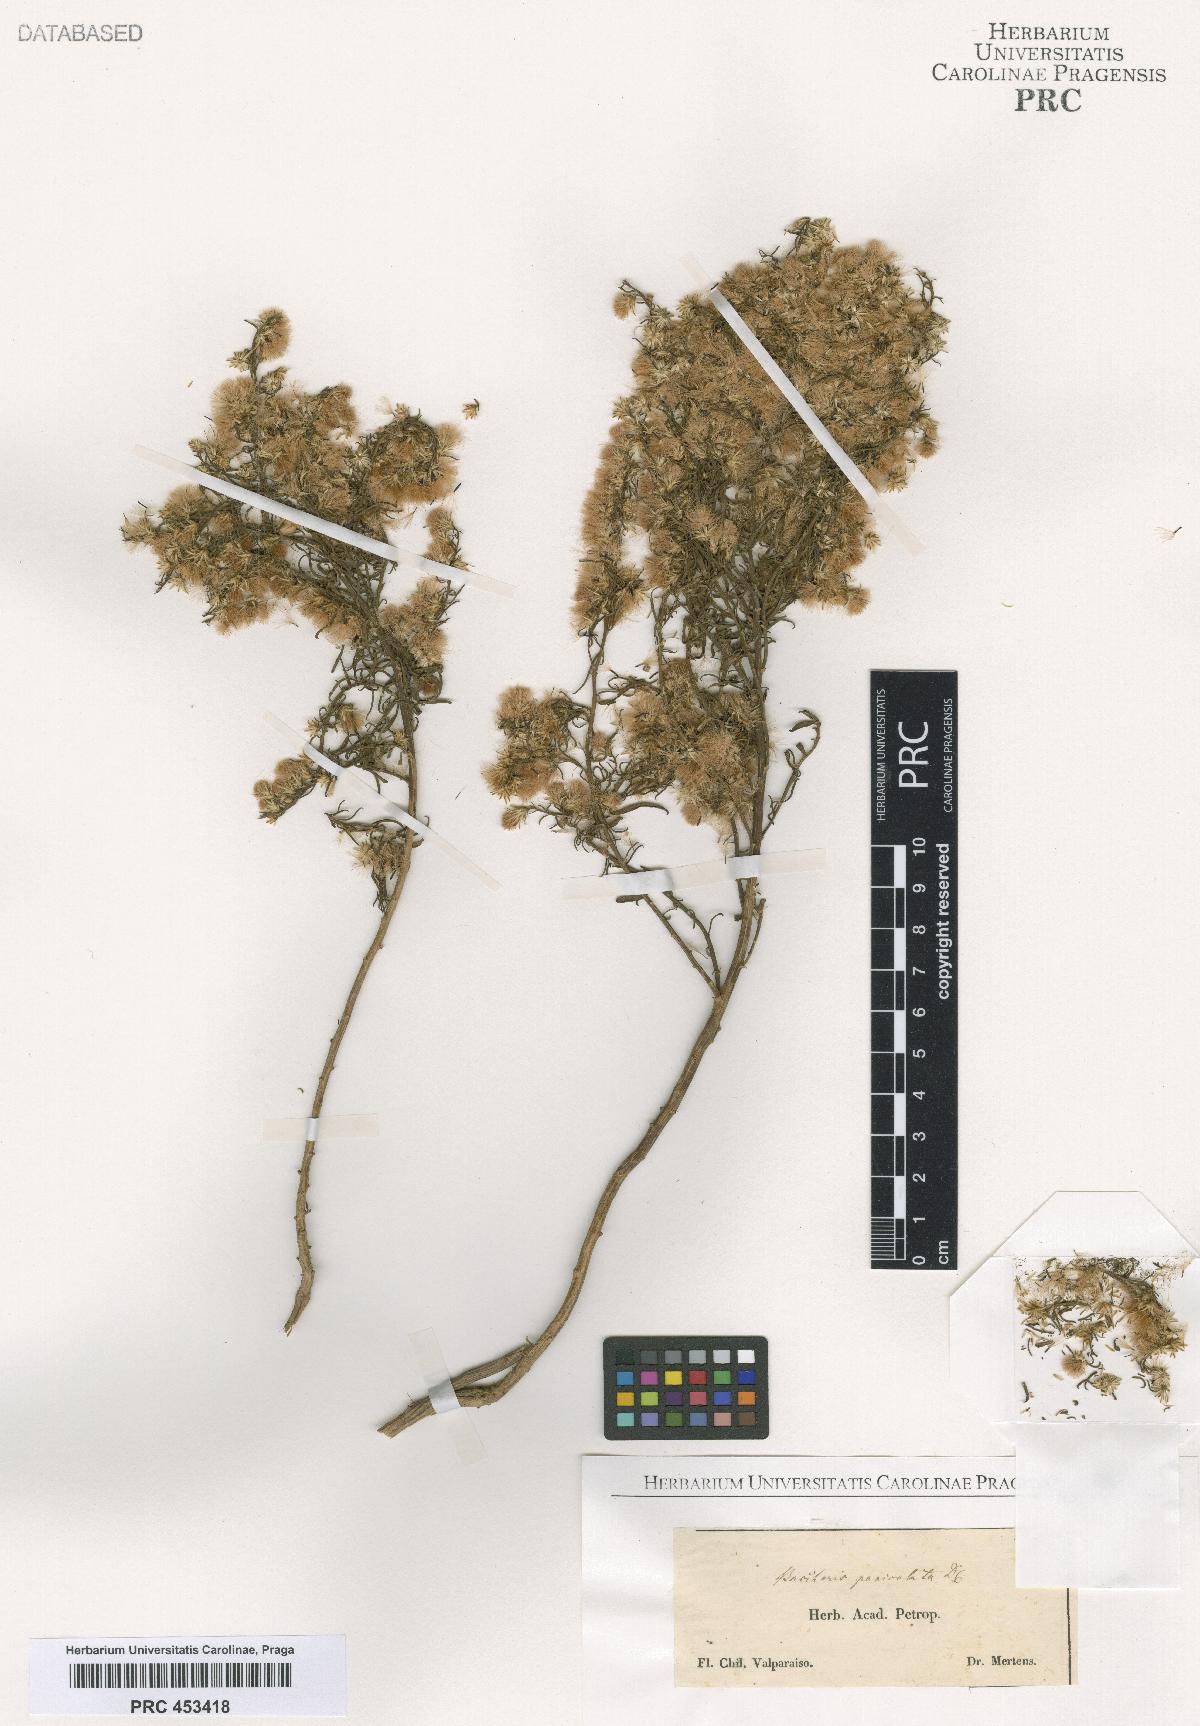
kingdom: Plantae
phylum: Tracheophyta
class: Magnoliopsida
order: Asterales
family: Asteraceae
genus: Baccharis
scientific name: Baccharis
